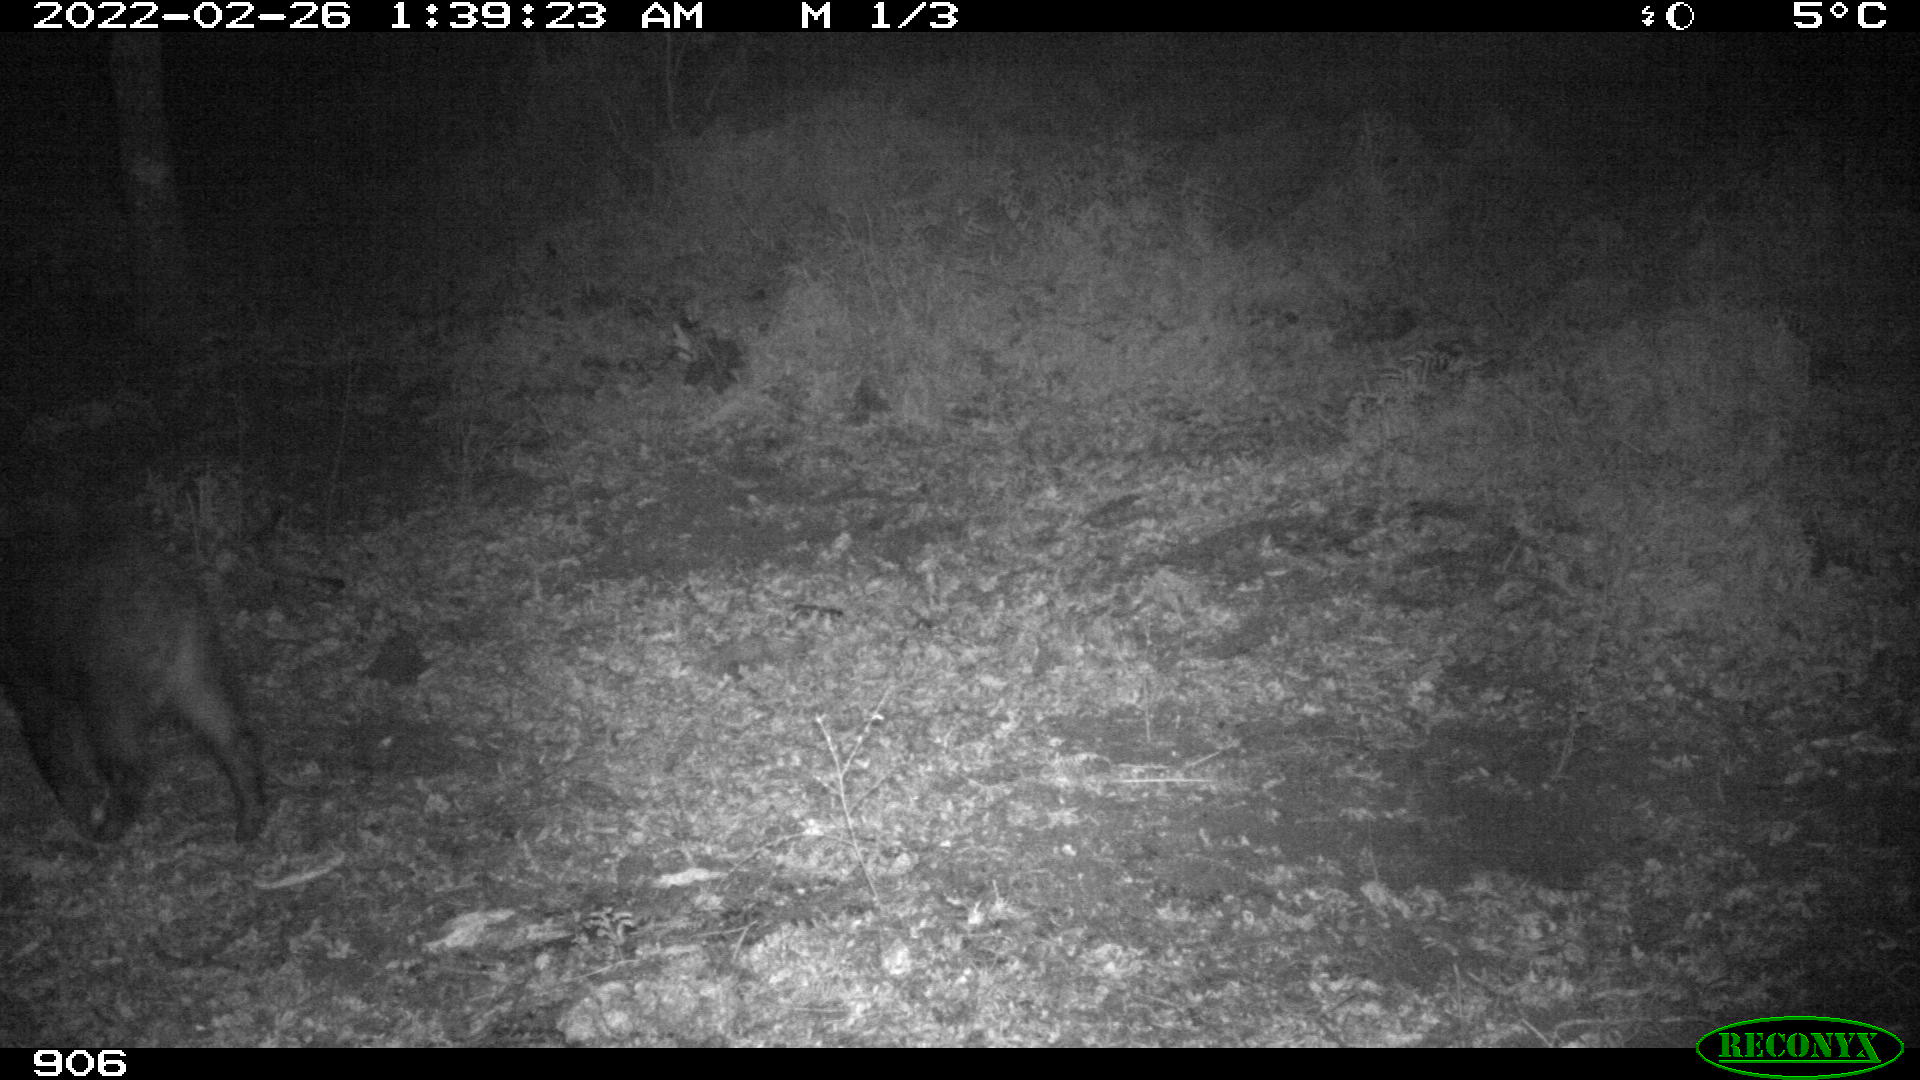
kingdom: Animalia
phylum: Chordata
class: Mammalia
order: Artiodactyla
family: Suidae
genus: Sus
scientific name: Sus scrofa
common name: Wild boar
